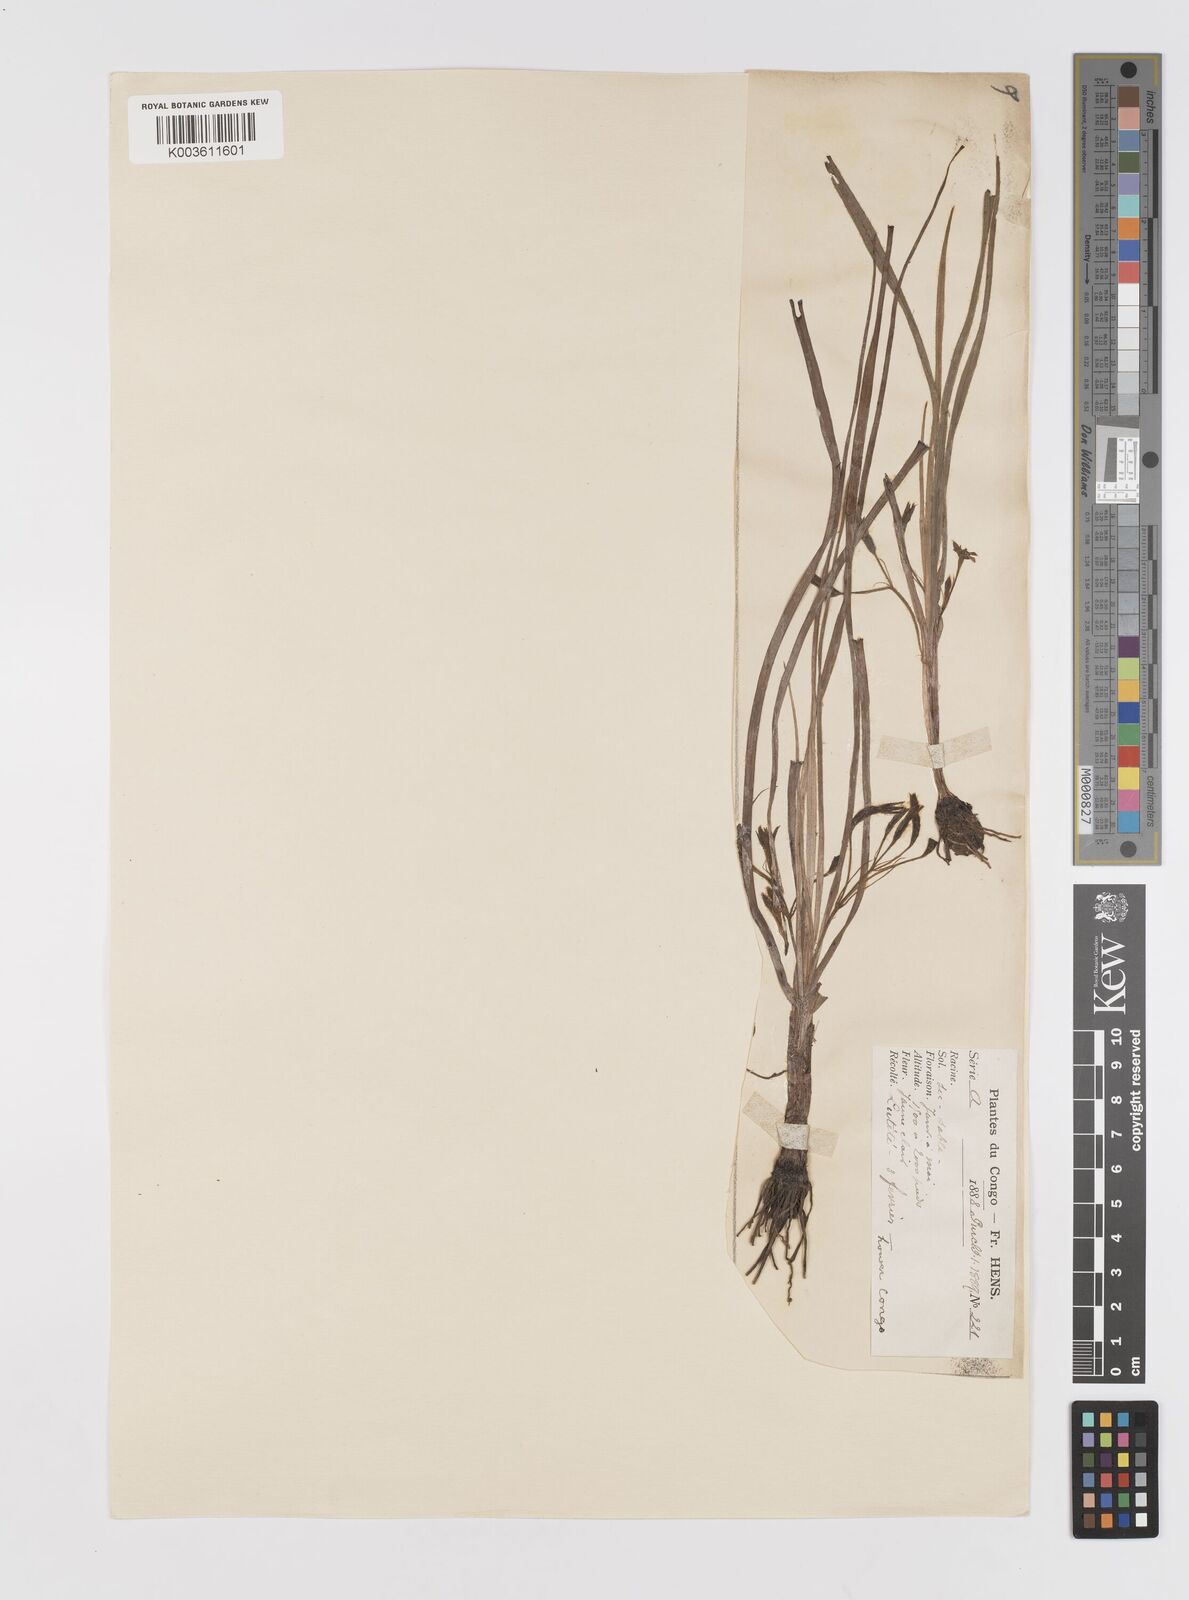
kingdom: Plantae
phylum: Tracheophyta
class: Liliopsida
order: Asparagales
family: Hypoxidaceae
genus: Hypoxis
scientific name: Hypoxis angustifolia
